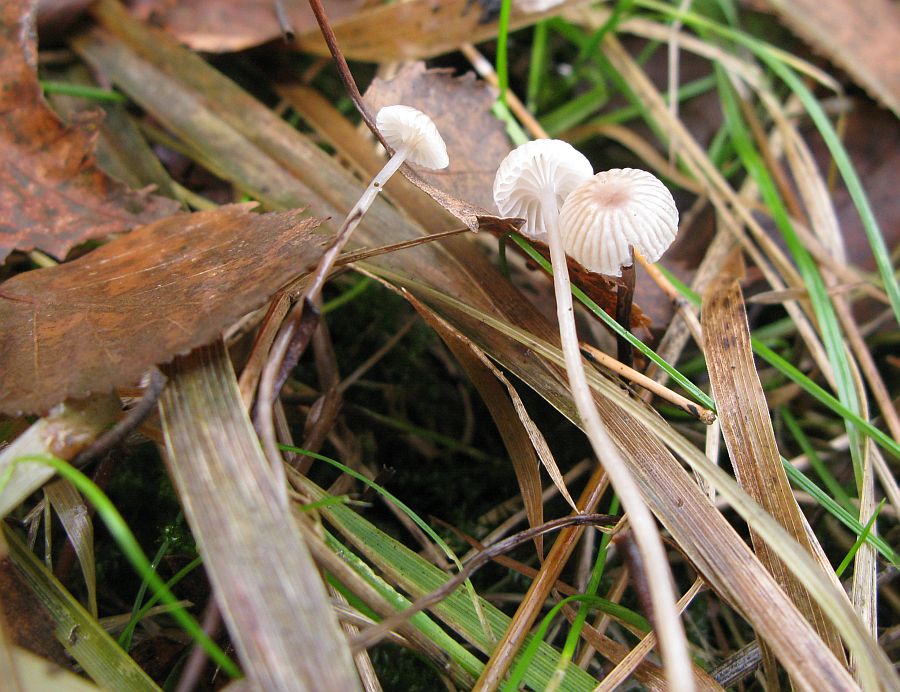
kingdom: Fungi
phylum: Basidiomycota
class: Agaricomycetes
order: Agaricales
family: Mycenaceae
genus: Mycena
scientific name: Mycena vulgaris
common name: klæbrig huesvamp
